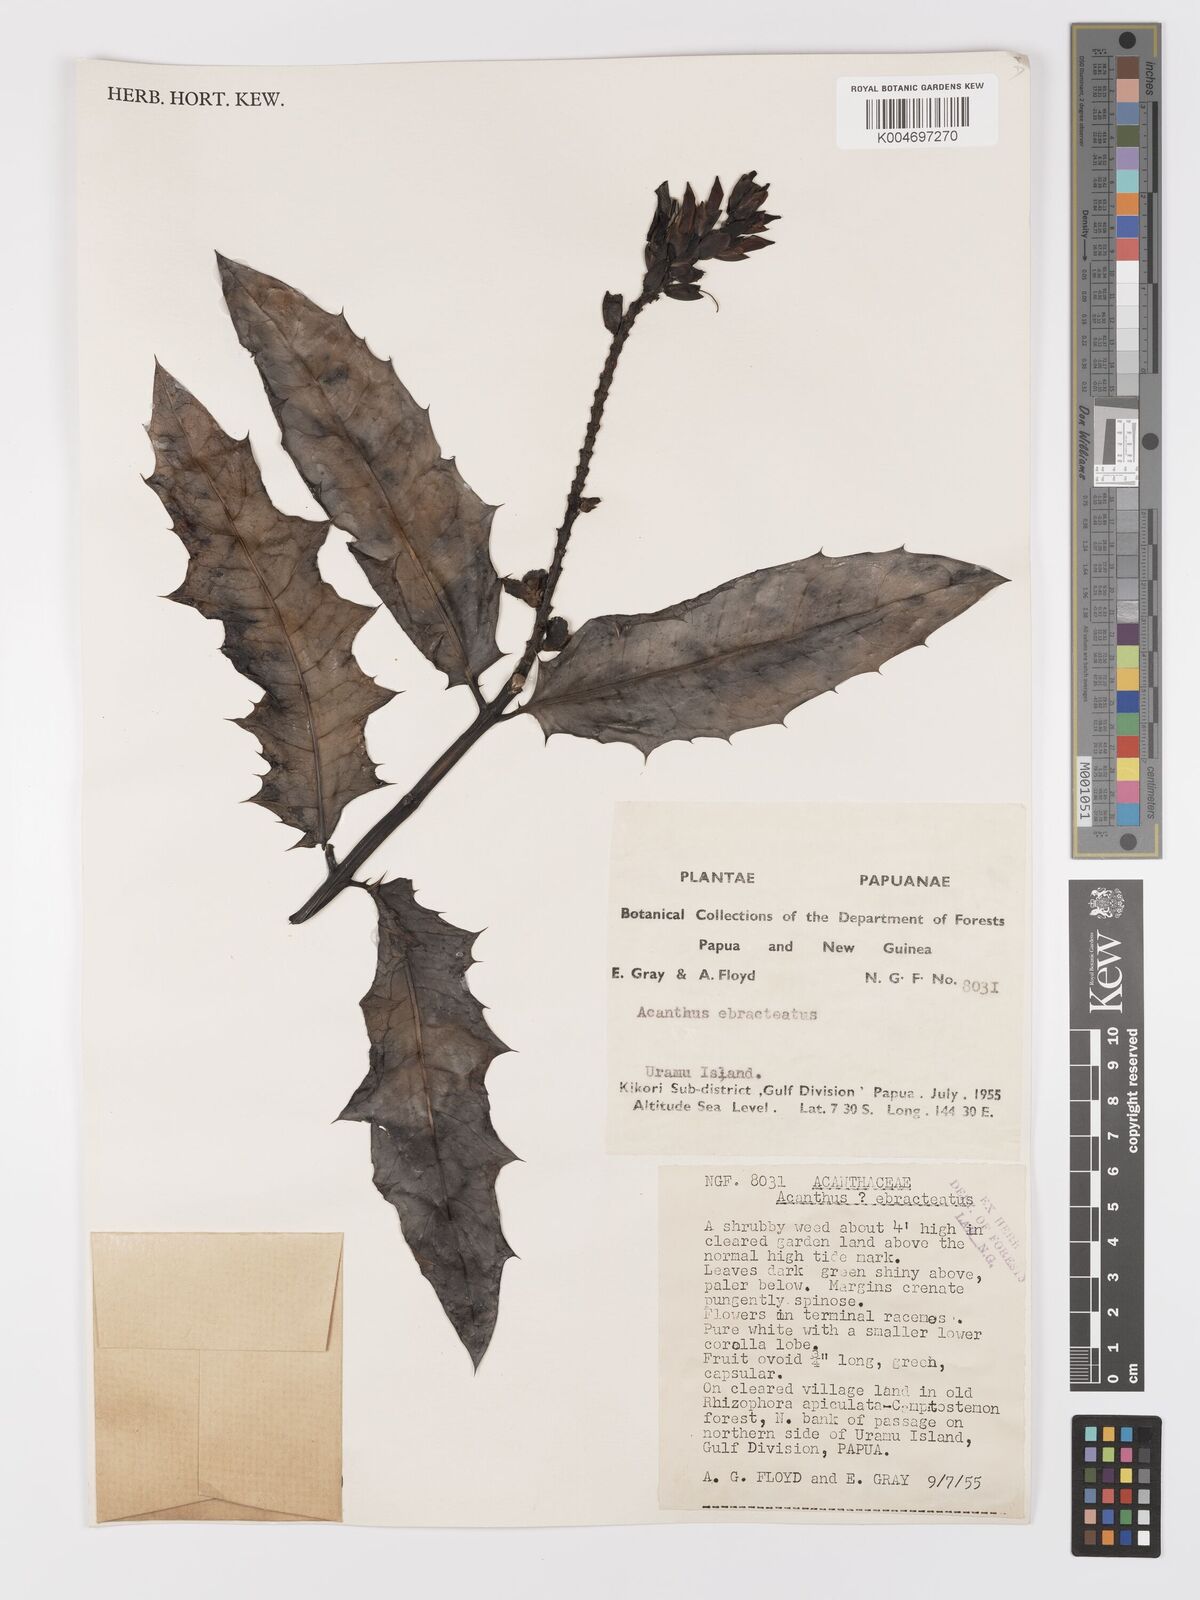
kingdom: Plantae
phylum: Tracheophyta
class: Magnoliopsida
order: Lamiales
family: Acanthaceae
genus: Acanthus
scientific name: Acanthus ebracteatus
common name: Acanthus
